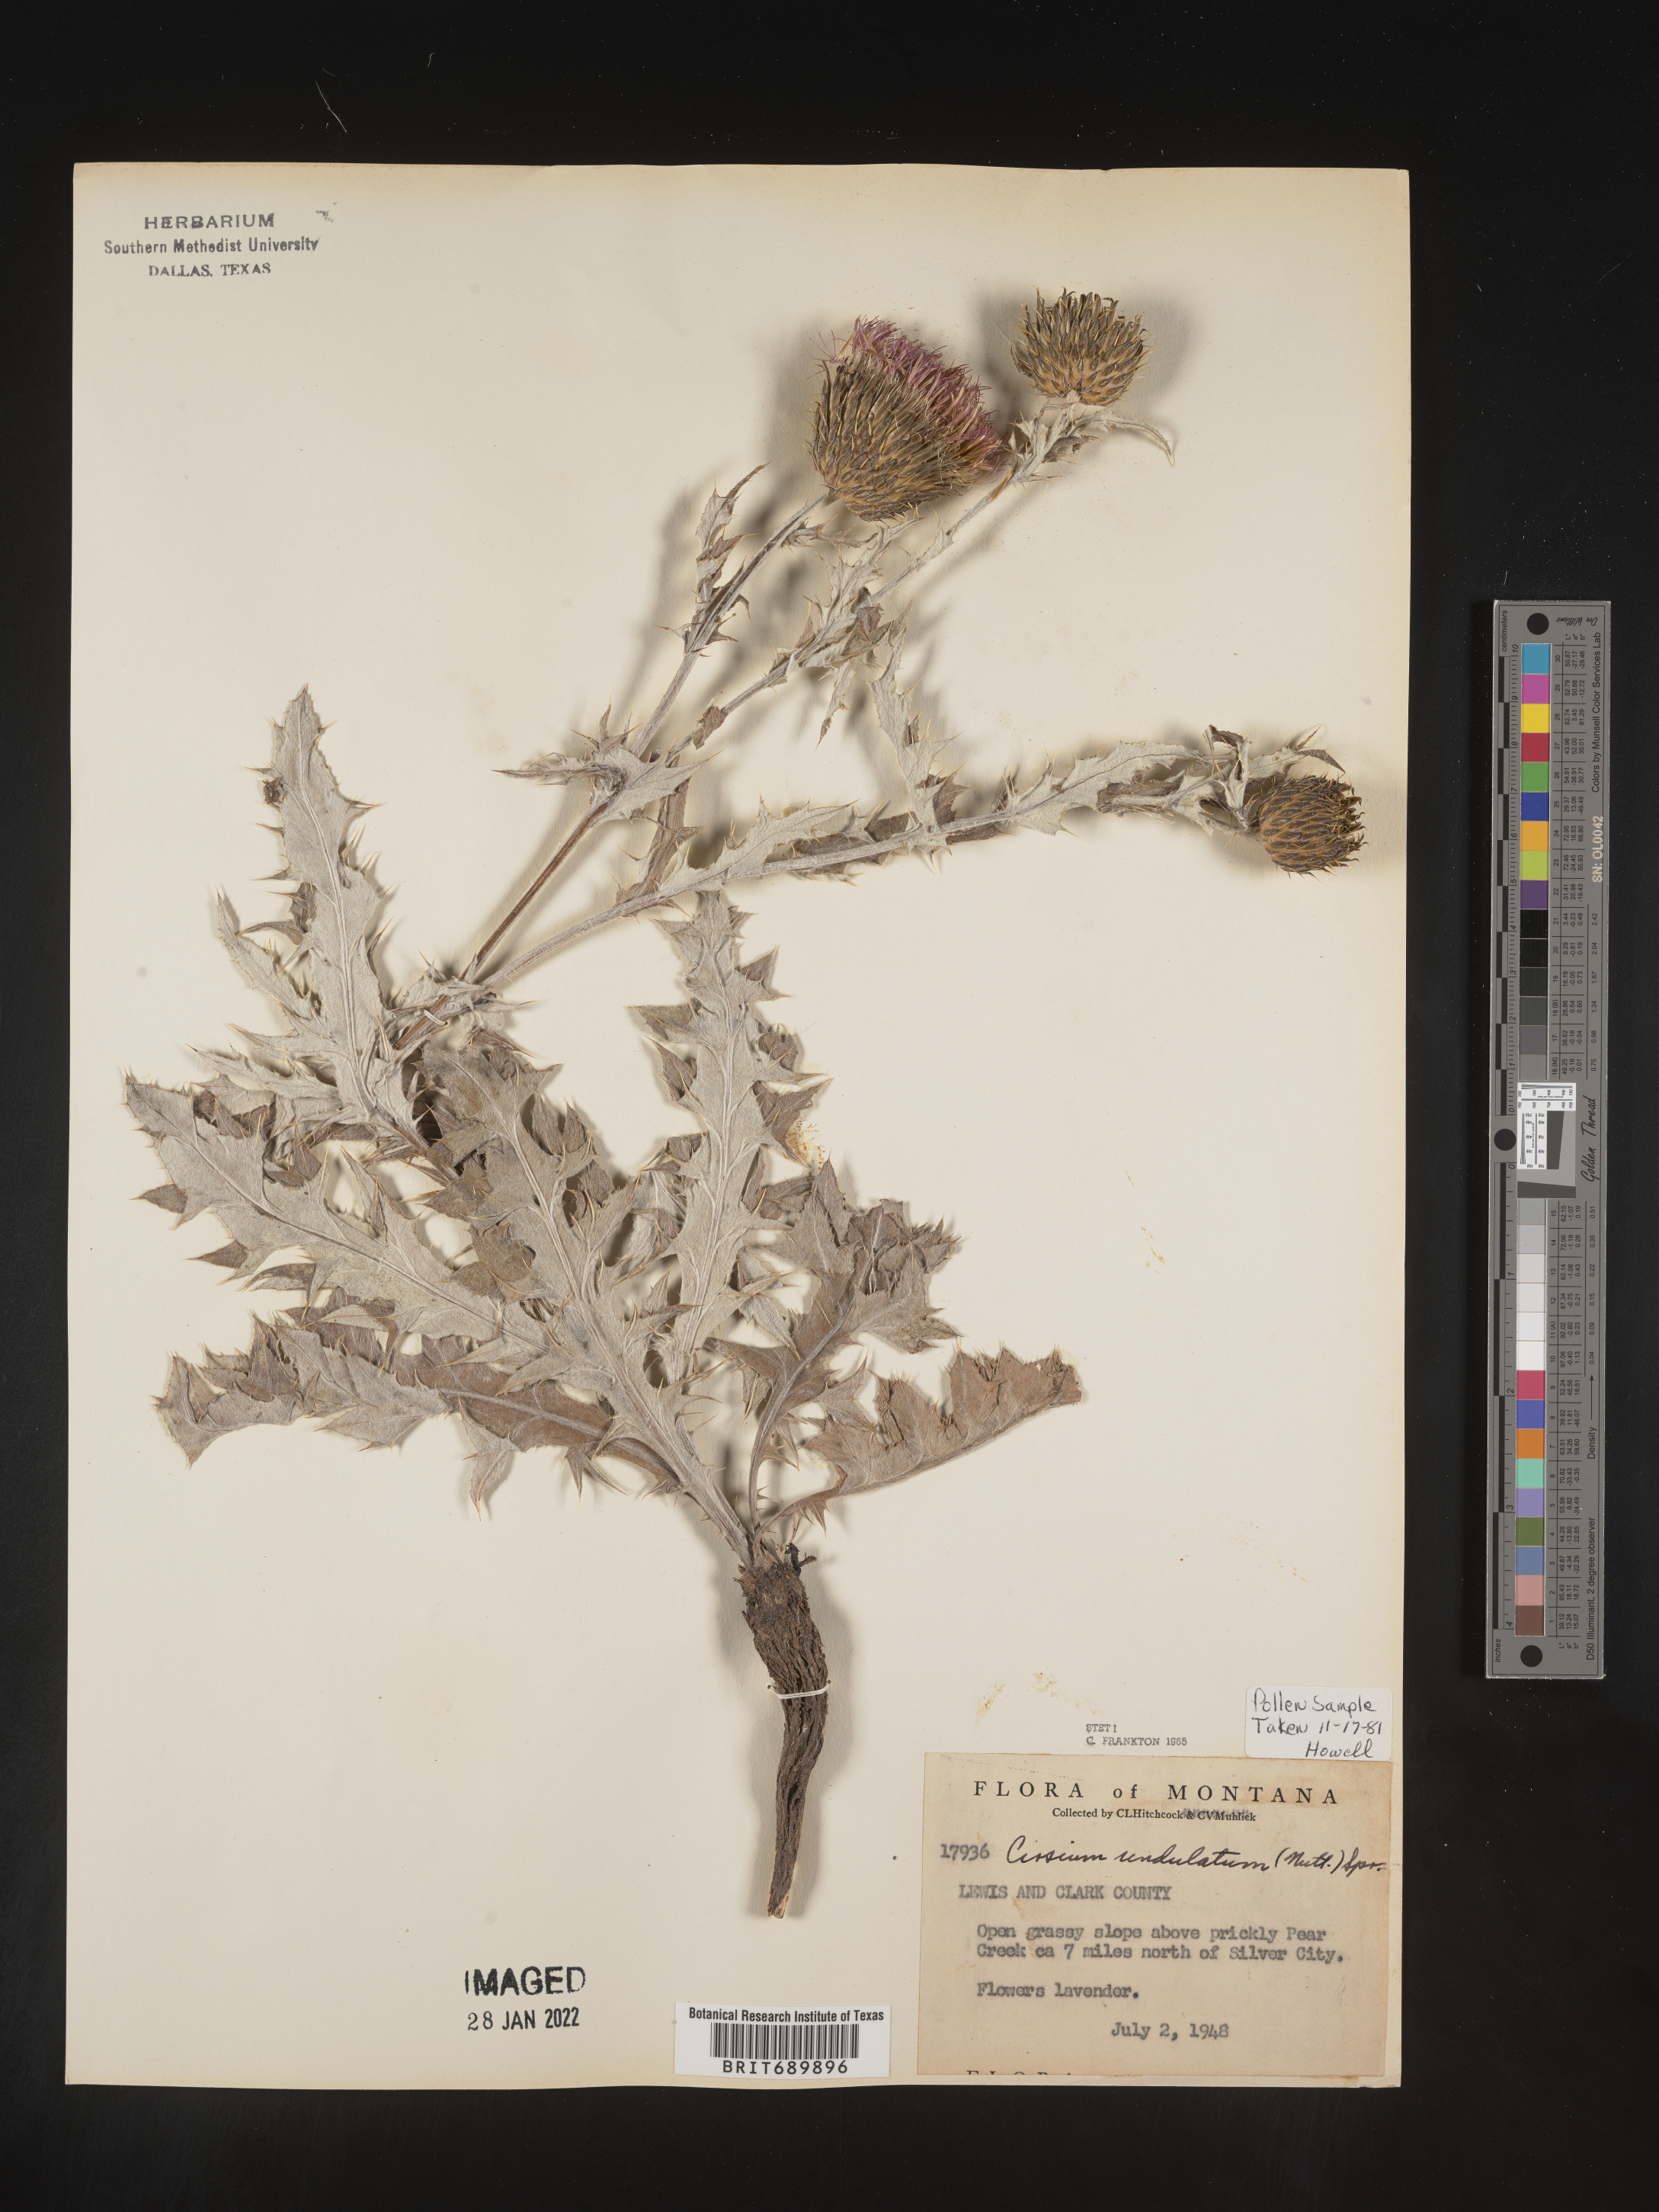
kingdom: Plantae
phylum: Tracheophyta
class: Magnoliopsida
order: Asterales
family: Asteraceae
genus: Cirsium
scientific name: Cirsium undulatum
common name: Pasture thistle
